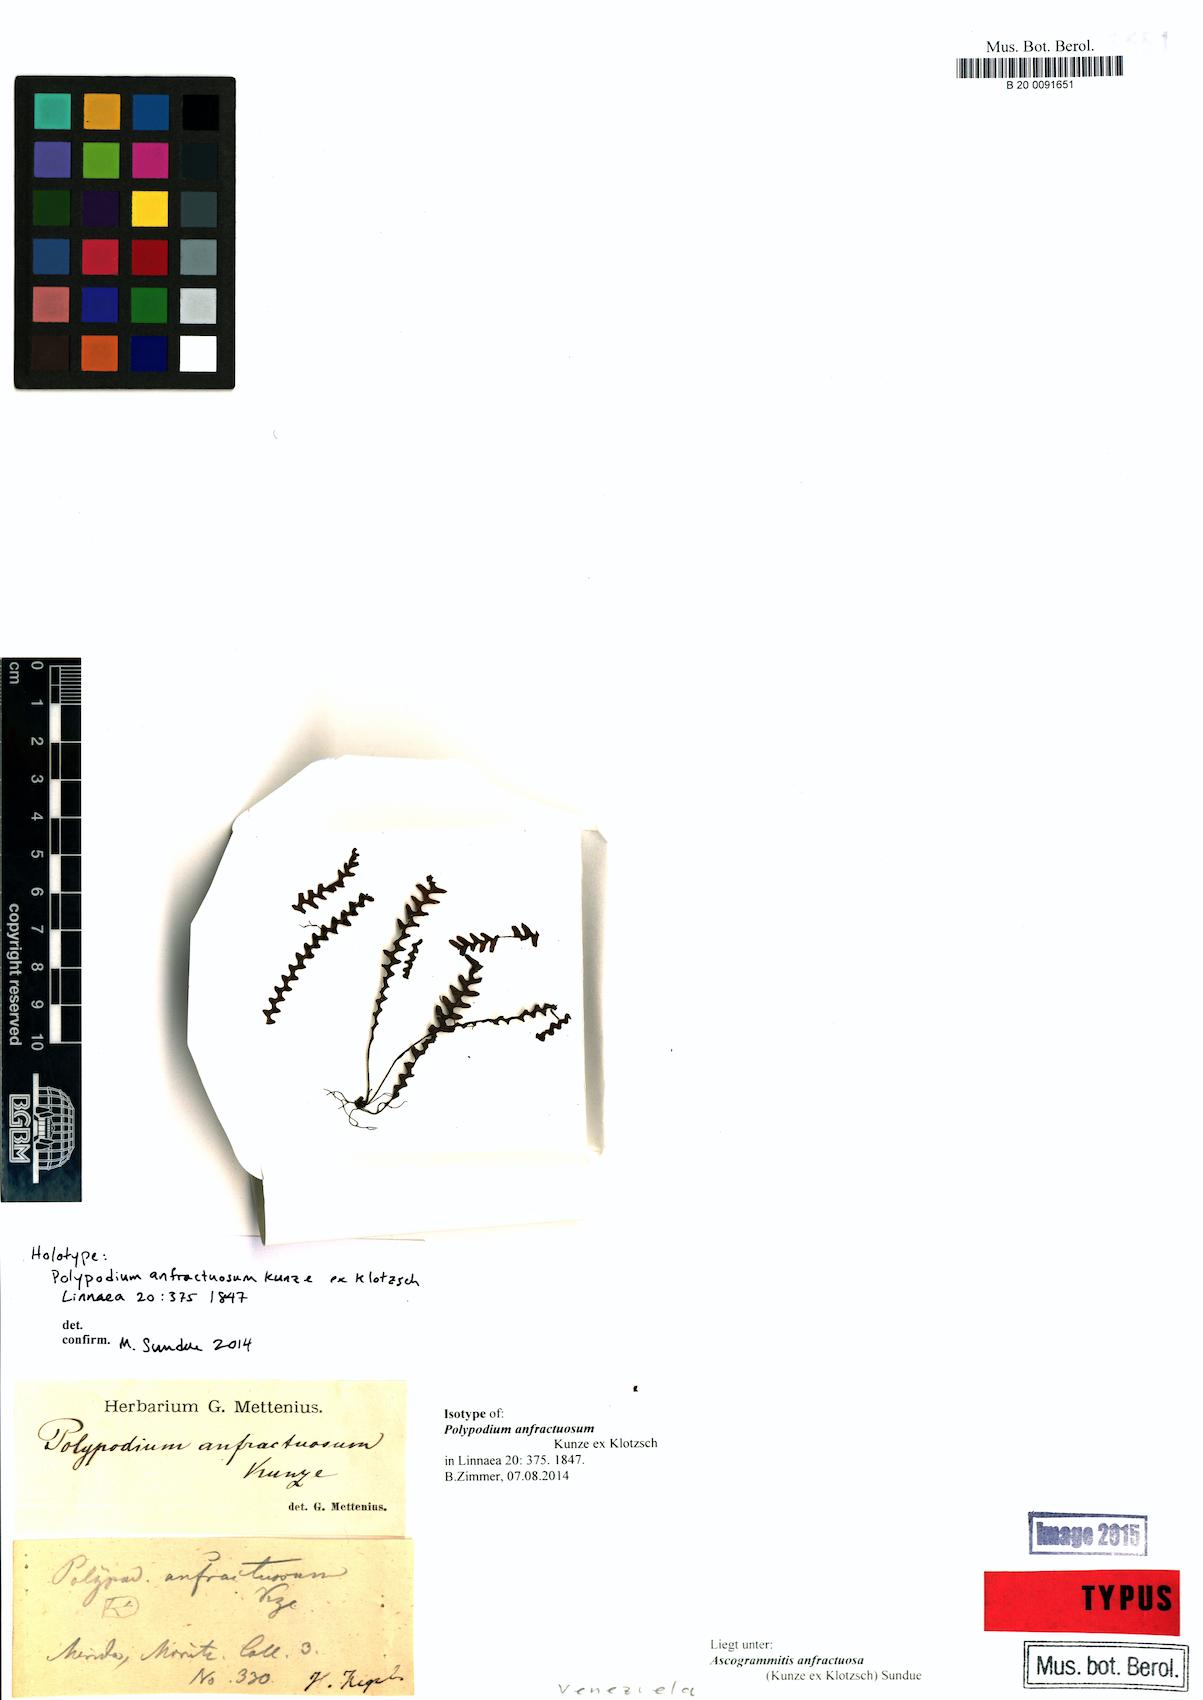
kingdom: Plantae
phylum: Tracheophyta
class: Polypodiopsida
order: Polypodiales
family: Polypodiaceae
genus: Ascogrammitis
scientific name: Ascogrammitis anfractuosa
